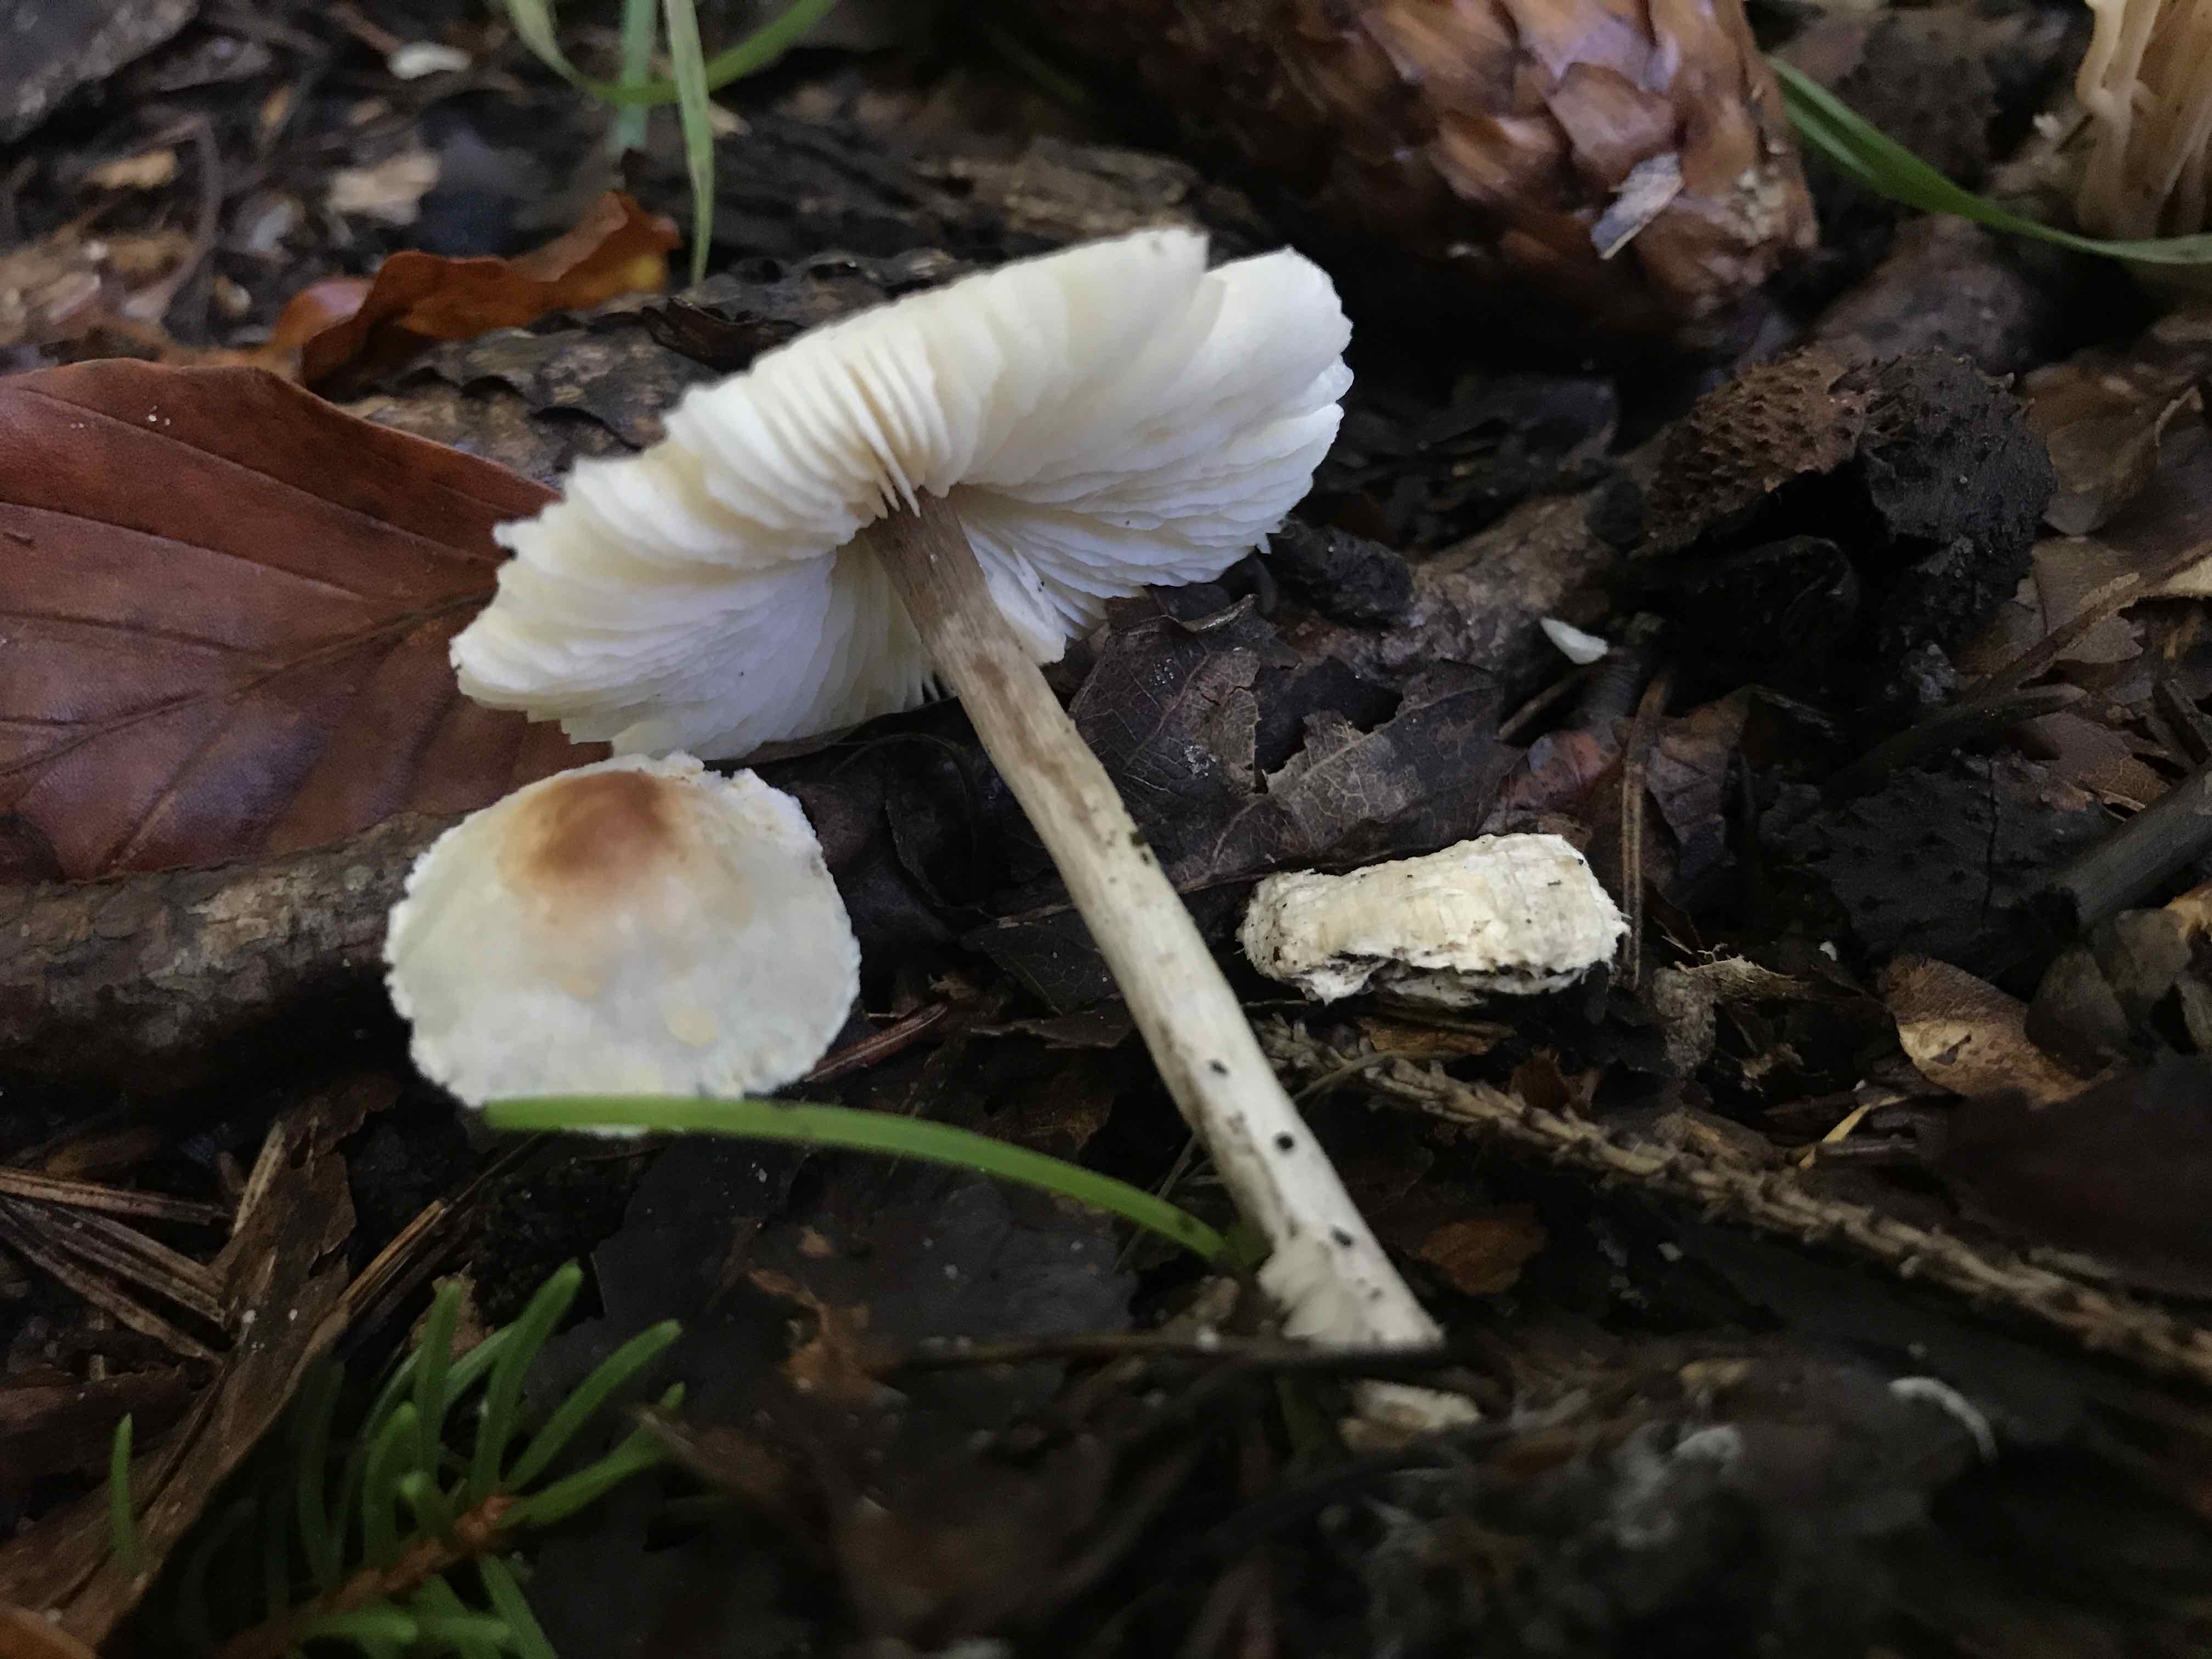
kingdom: Fungi
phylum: Basidiomycota
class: Agaricomycetes
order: Agaricales
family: Agaricaceae
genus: Lepiota
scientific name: Lepiota
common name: parasolhat
